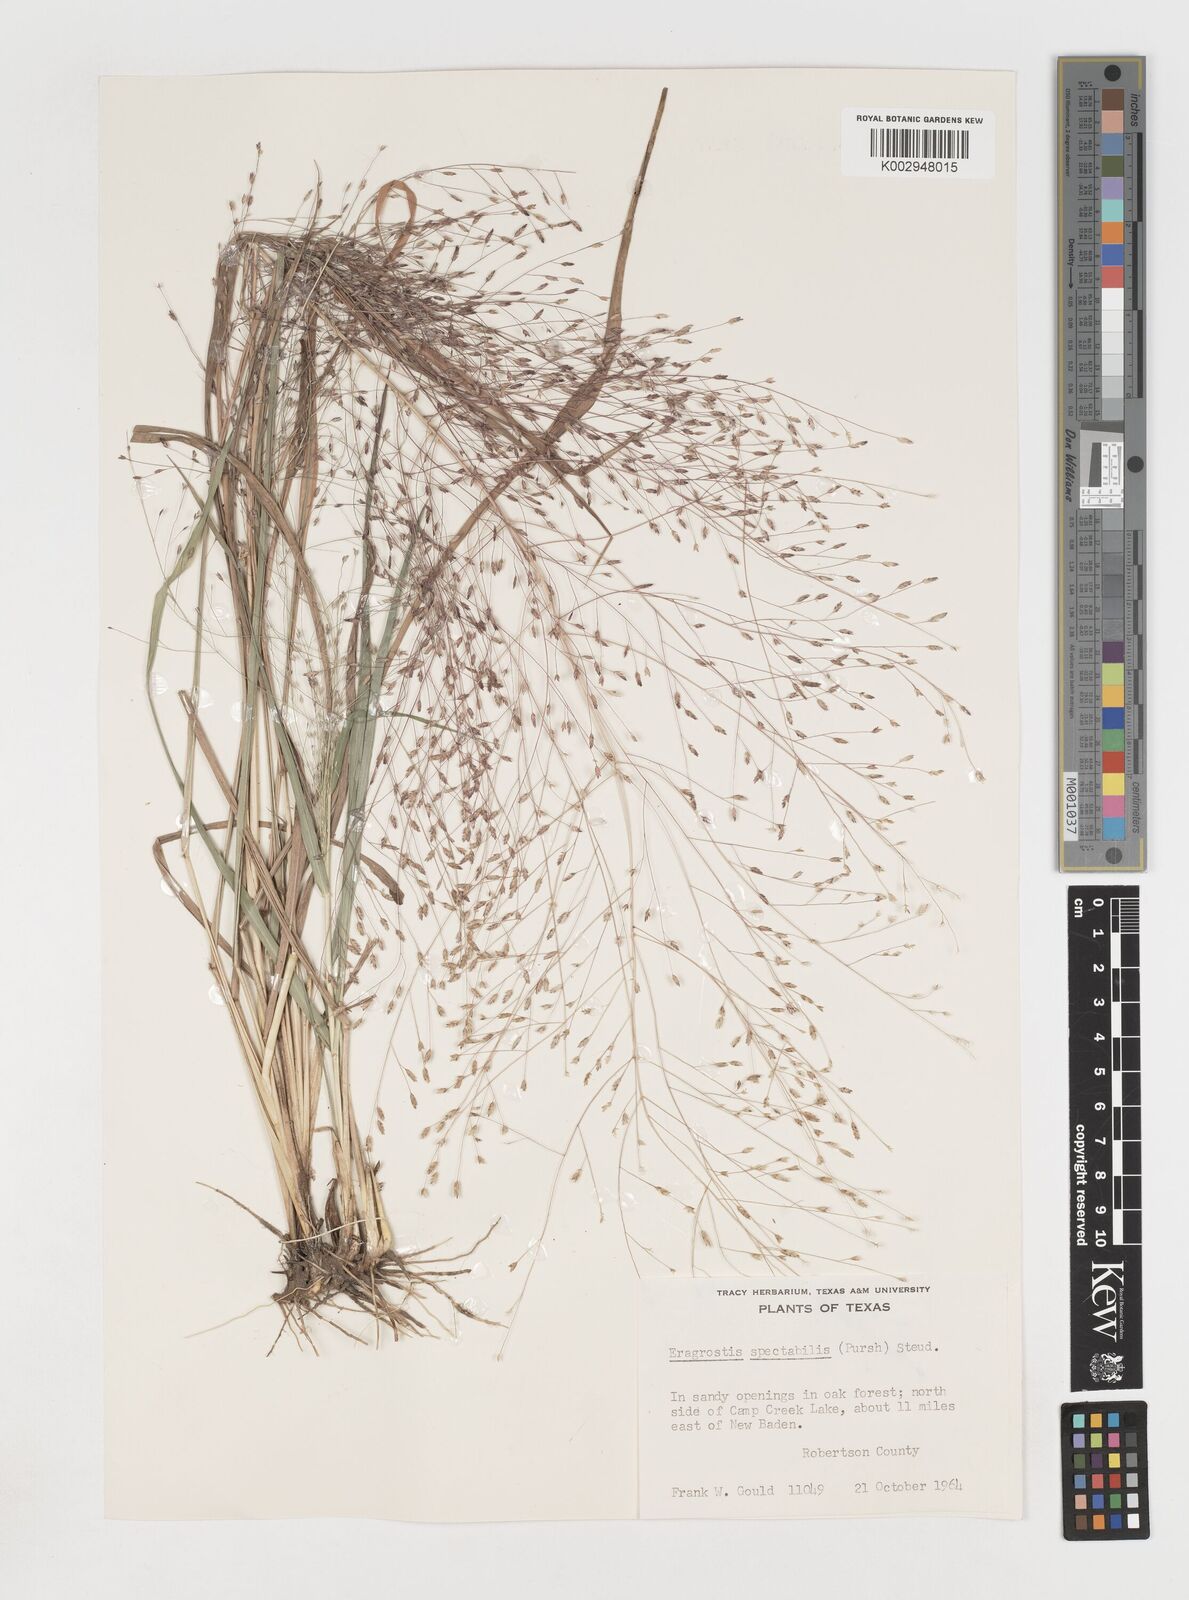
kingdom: Plantae
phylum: Tracheophyta
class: Liliopsida
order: Poales
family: Poaceae
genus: Eragrostis
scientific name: Eragrostis spectabilis
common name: Petticoat-climber
